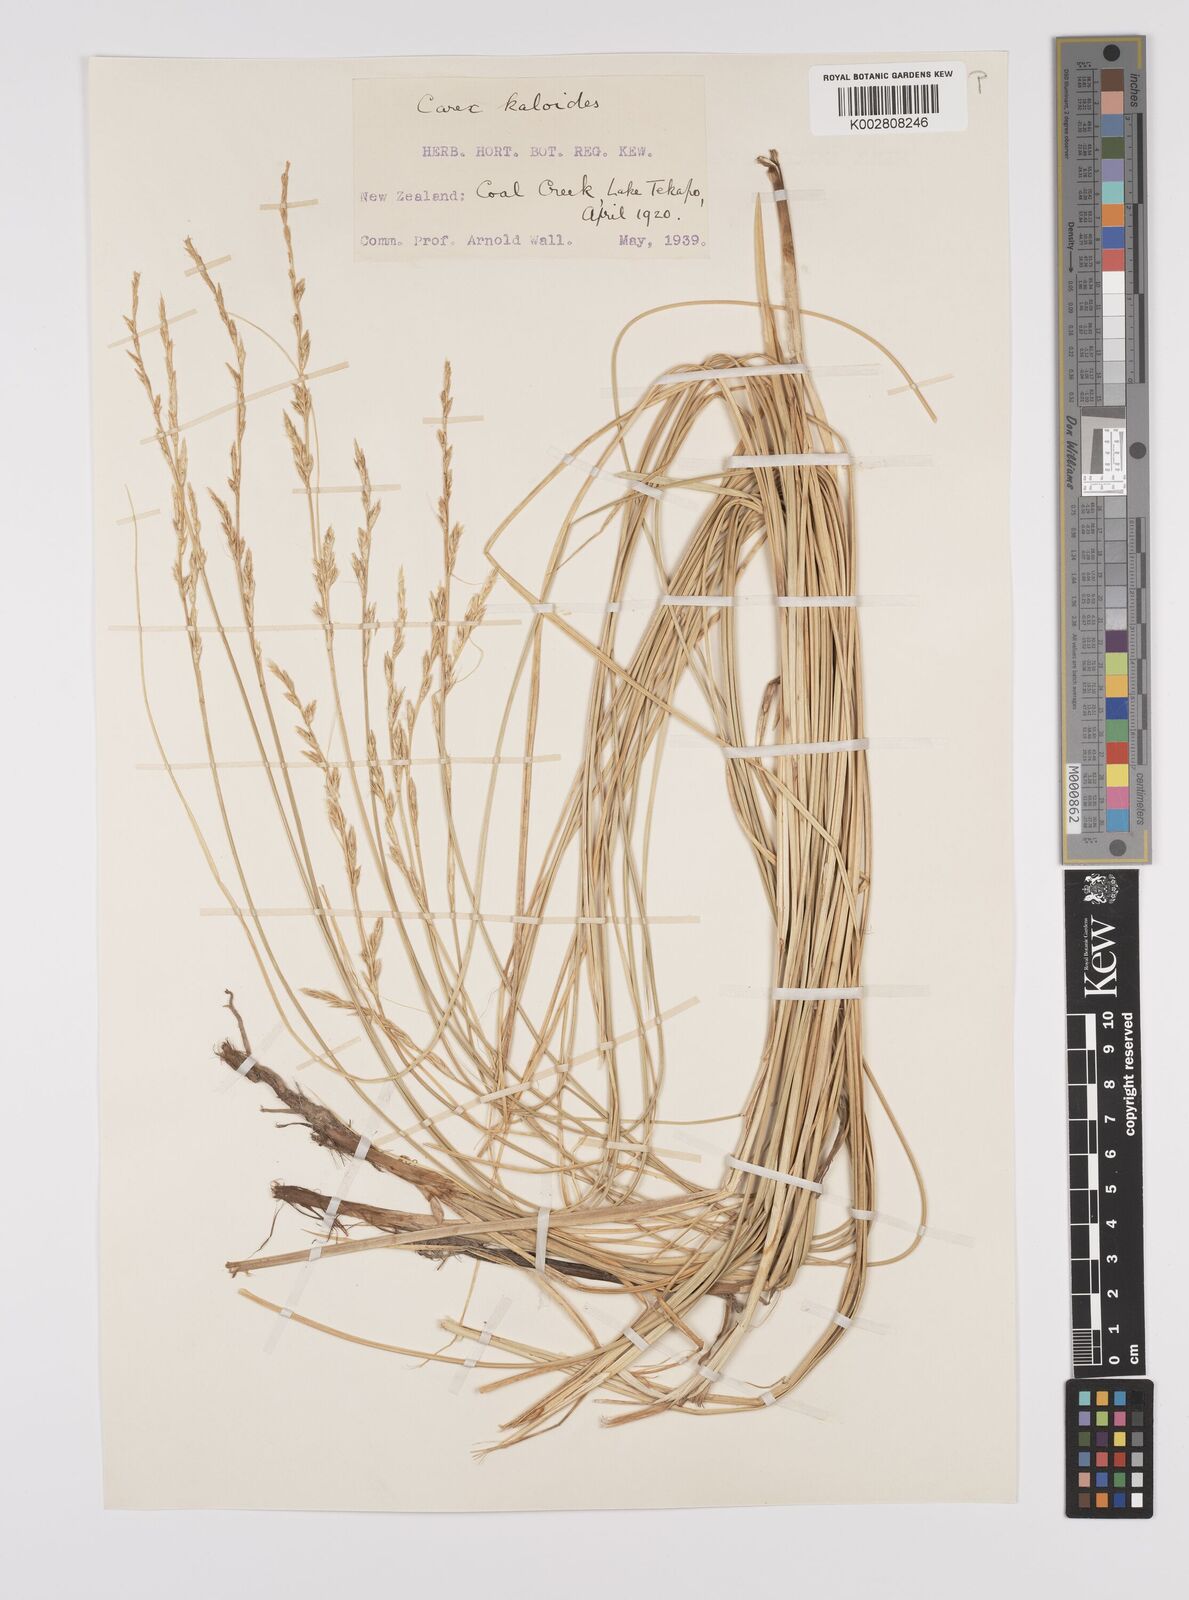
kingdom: Plantae
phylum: Tracheophyta
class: Liliopsida
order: Poales
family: Cyperaceae
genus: Carex
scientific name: Carex kaloides
